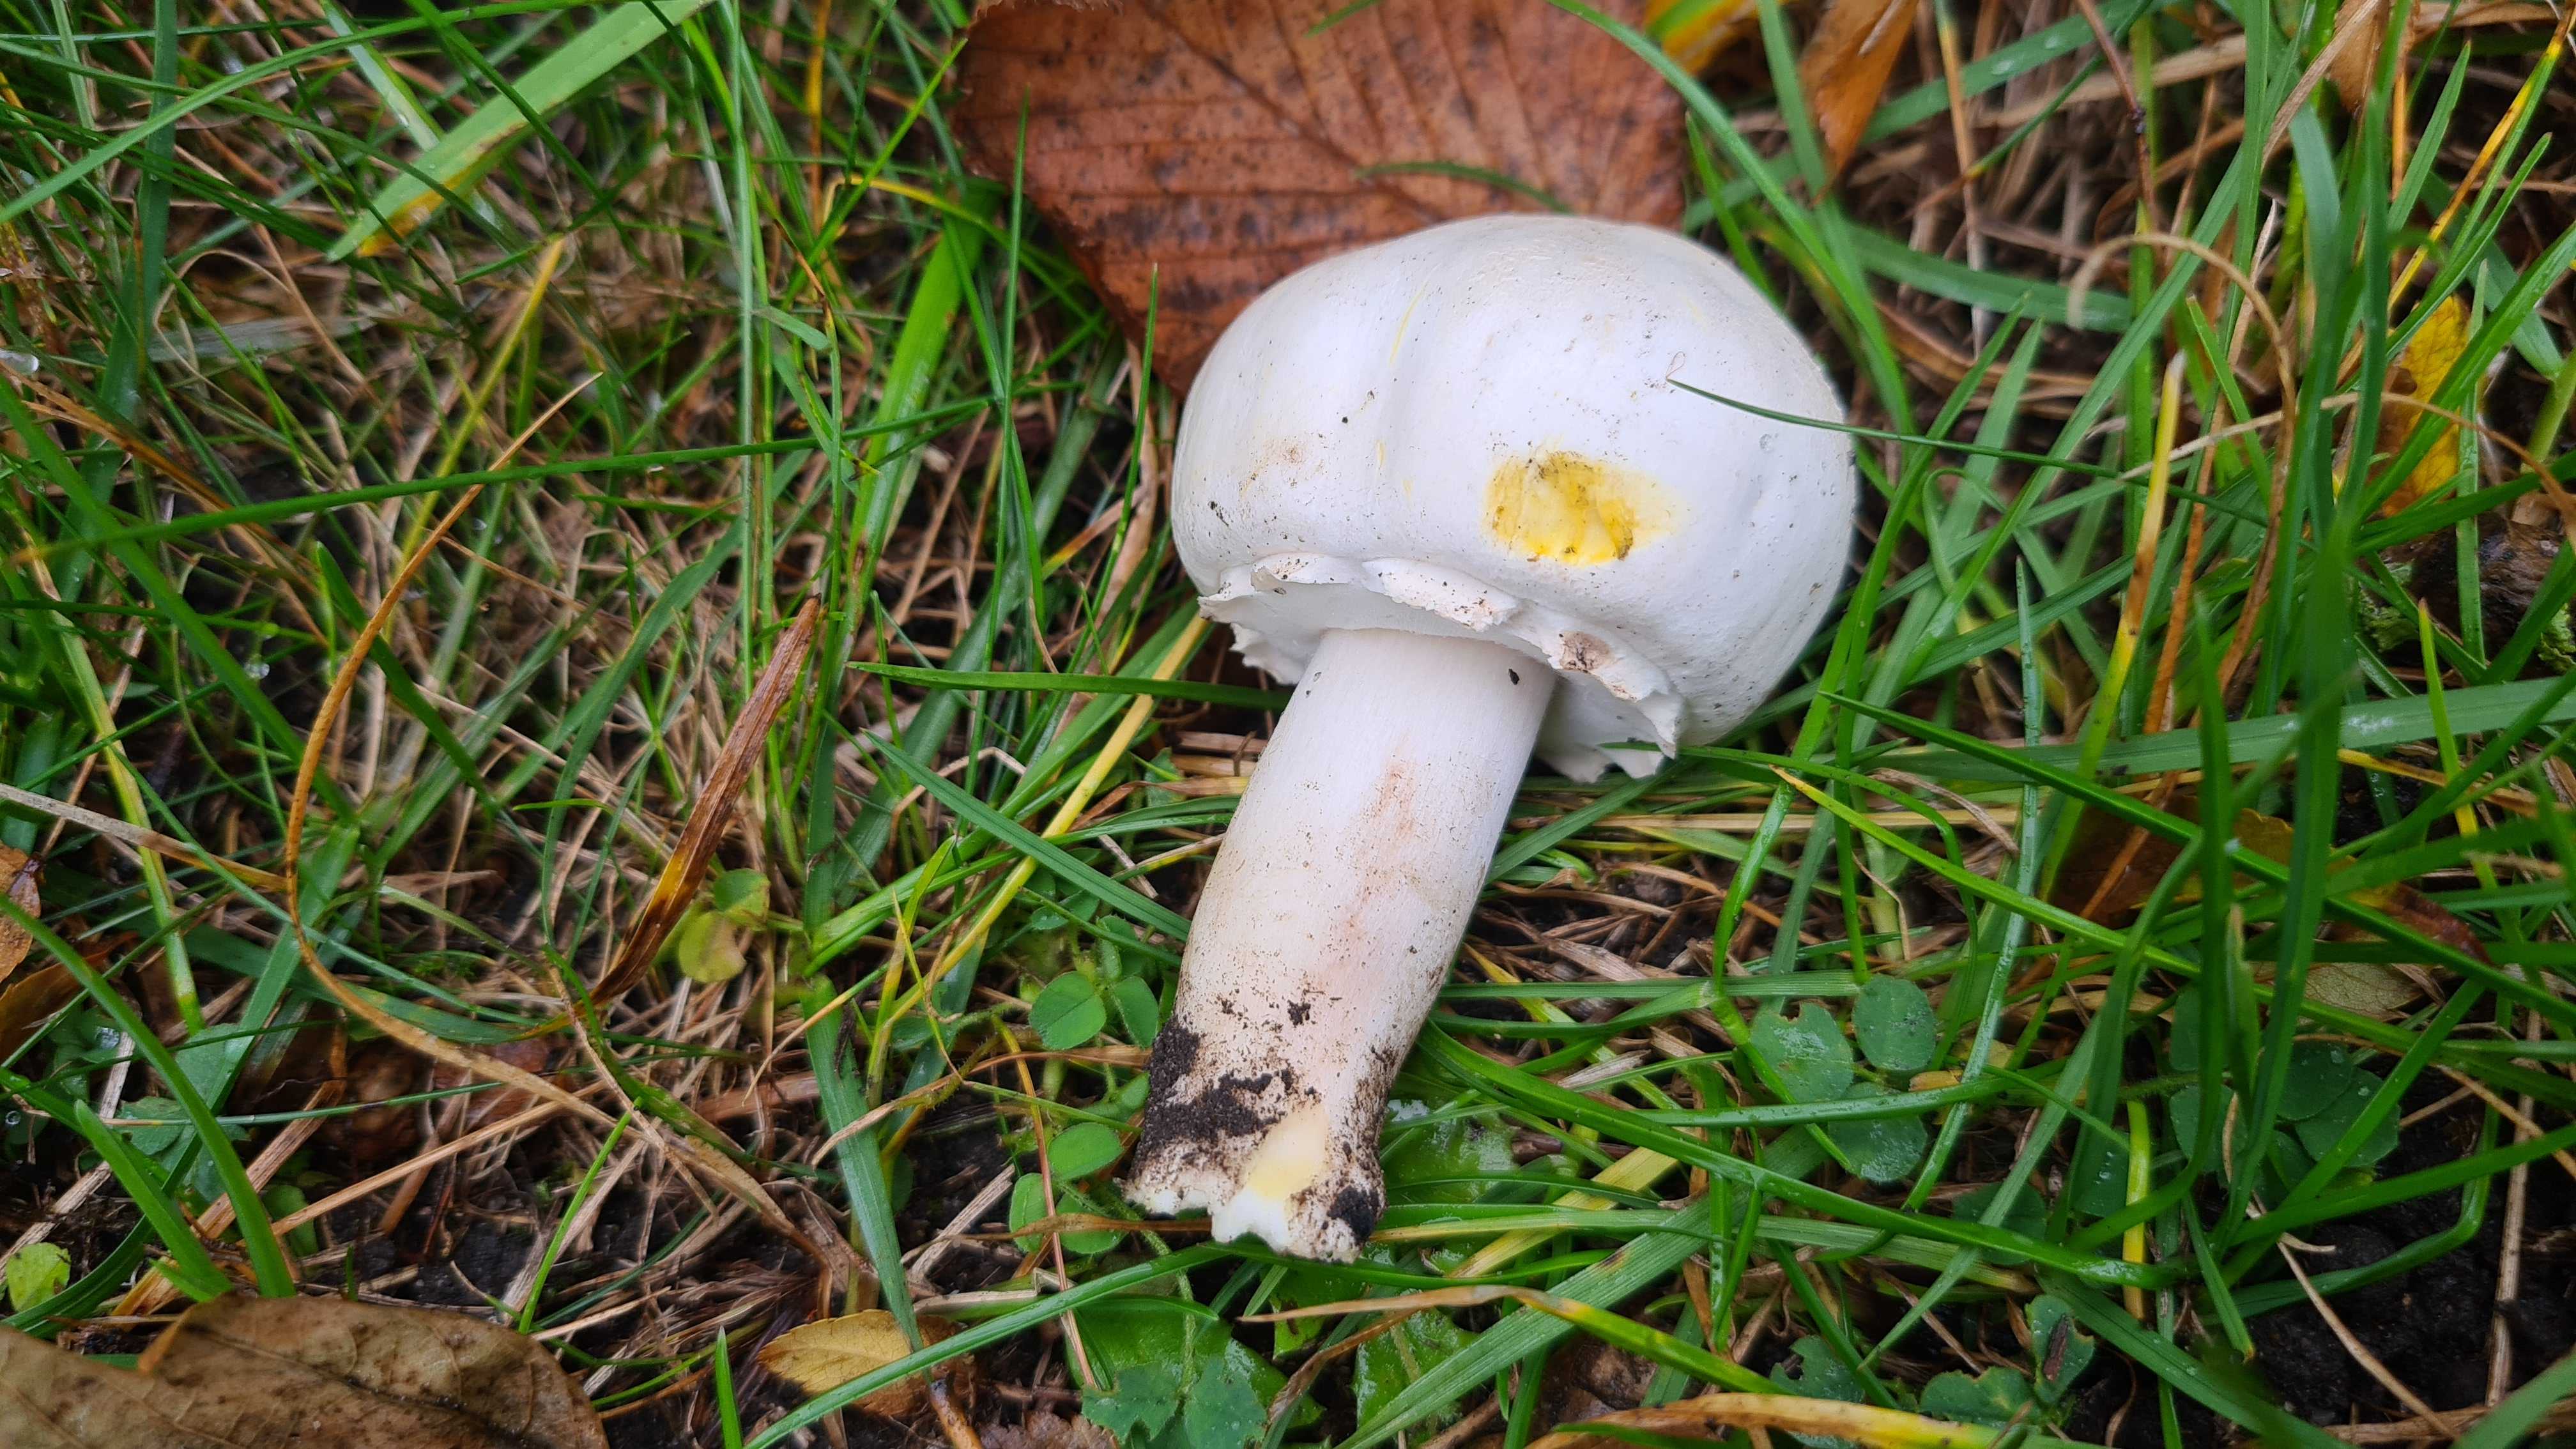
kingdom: Fungi
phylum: Basidiomycota
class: Agaricomycetes
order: Agaricales
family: Agaricaceae
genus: Agaricus
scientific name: Agaricus xanthodermus
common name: karbol-champignon
